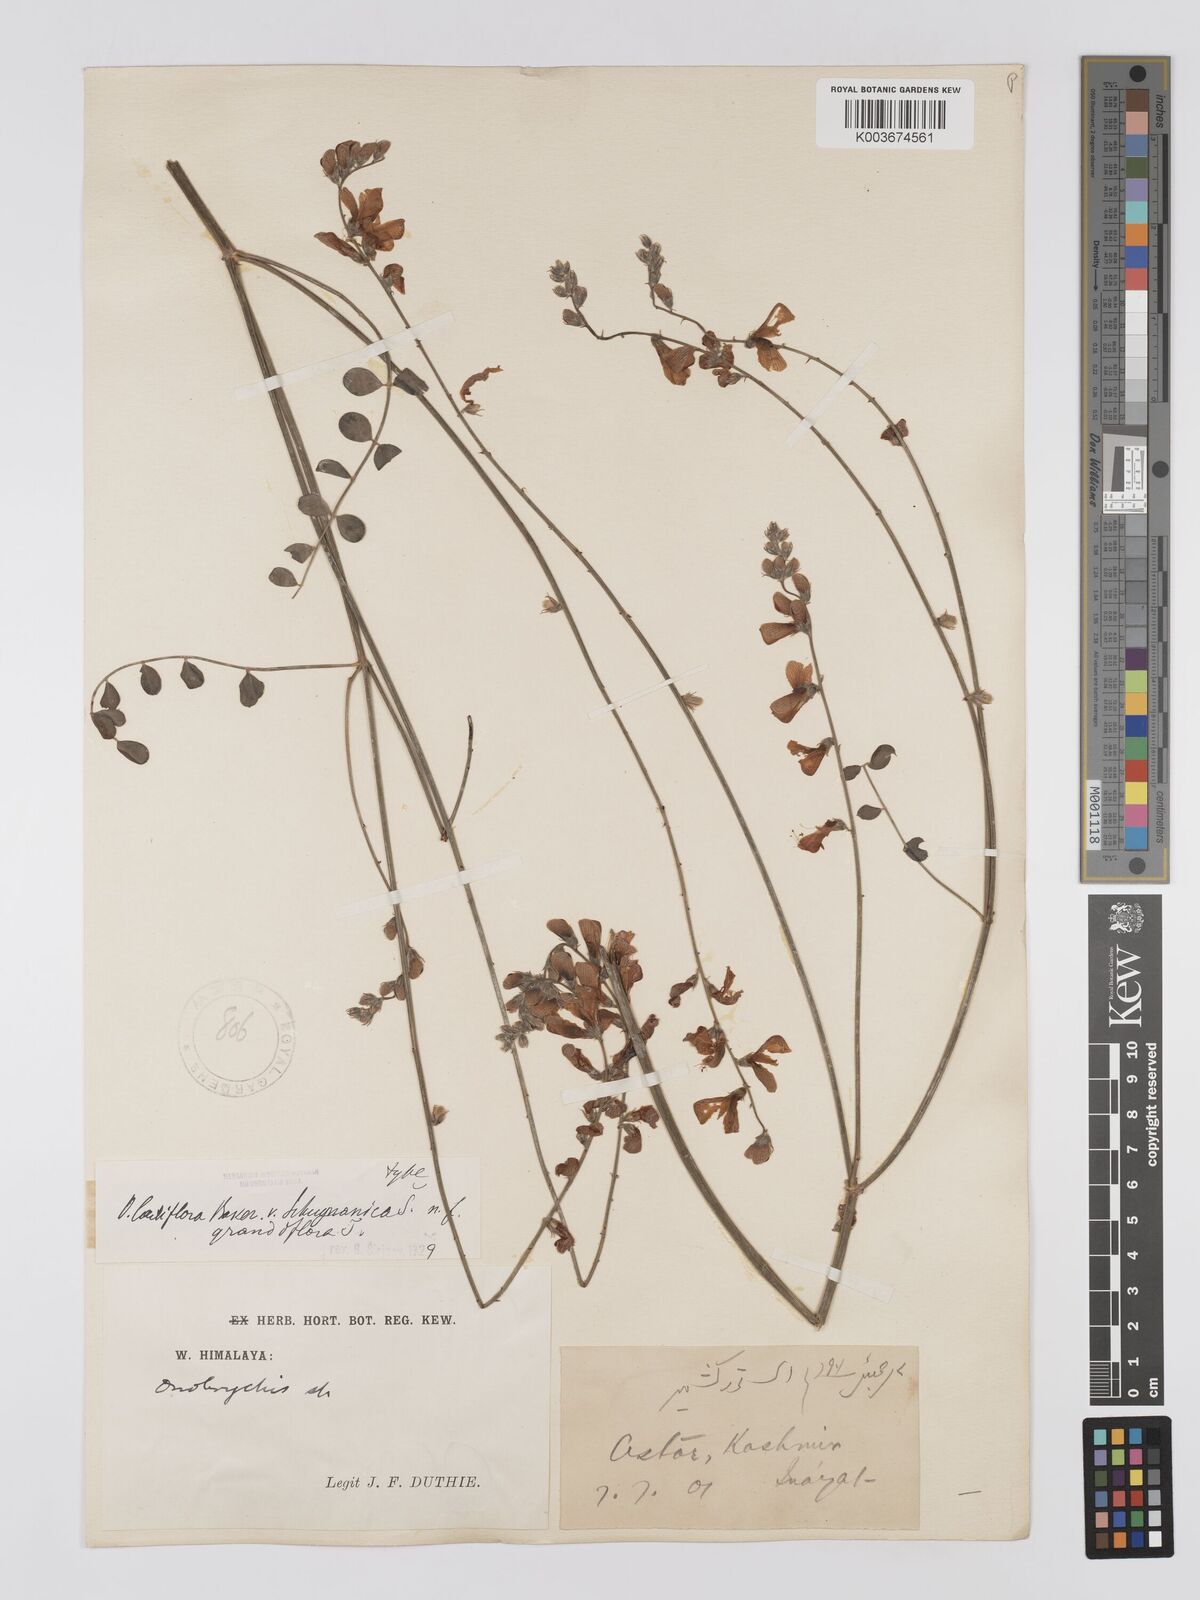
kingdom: Plantae
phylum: Tracheophyta
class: Magnoliopsida
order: Fabales
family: Fabaceae
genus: Onobrychis
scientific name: Onobrychis laxiflora
